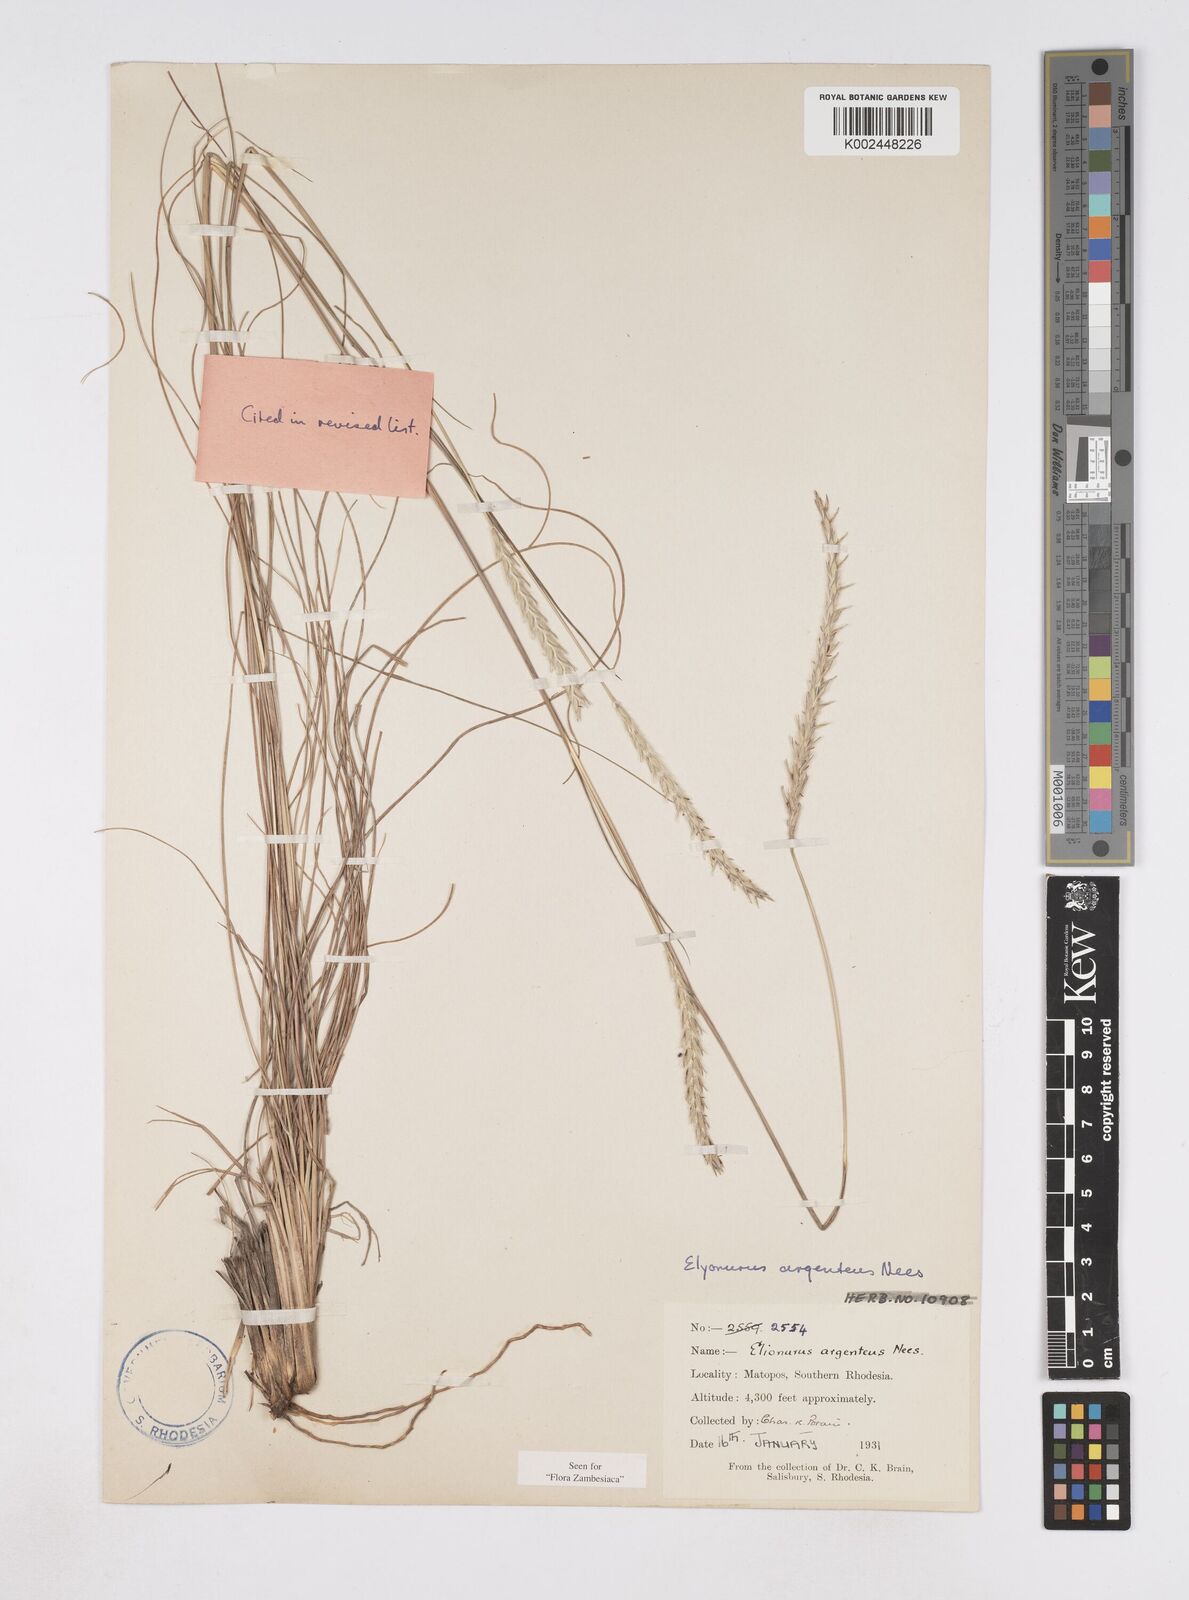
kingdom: Plantae
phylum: Tracheophyta
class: Liliopsida
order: Poales
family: Poaceae
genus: Elionurus
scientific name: Elionurus muticus
